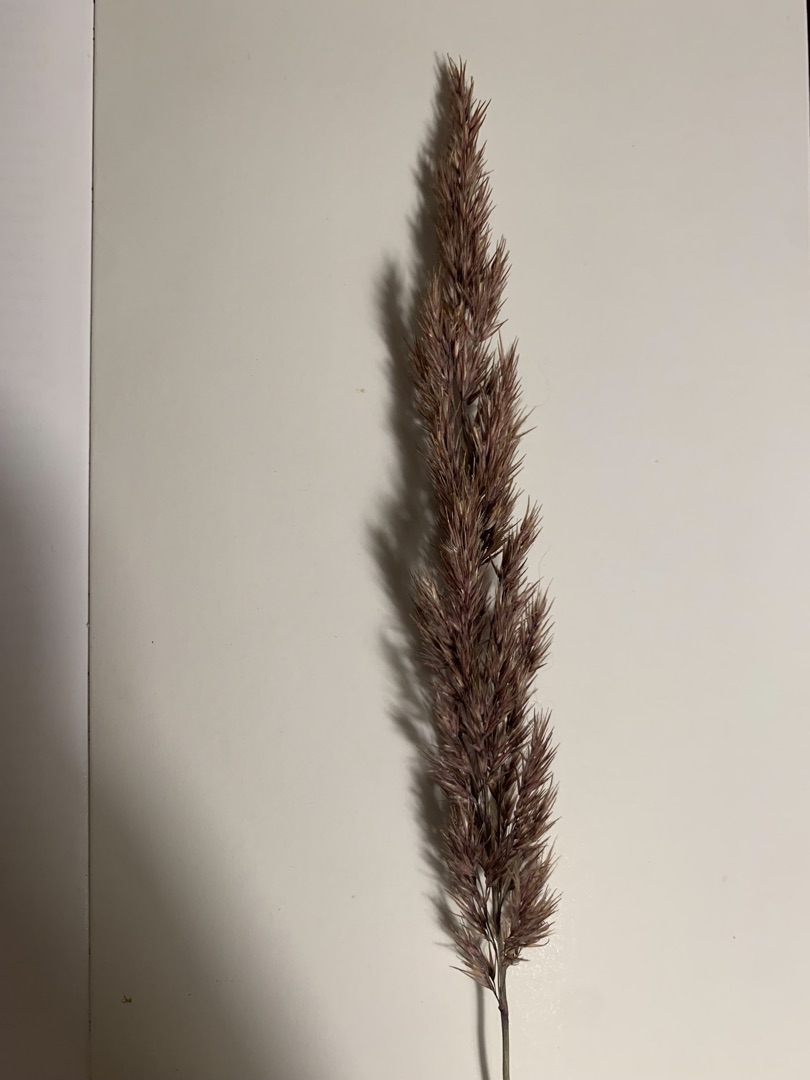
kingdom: Plantae
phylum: Tracheophyta
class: Liliopsida
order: Poales
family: Poaceae
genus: Calamagrostis
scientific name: Calamagrostis epigejos
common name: Bjerg-rørhvene
